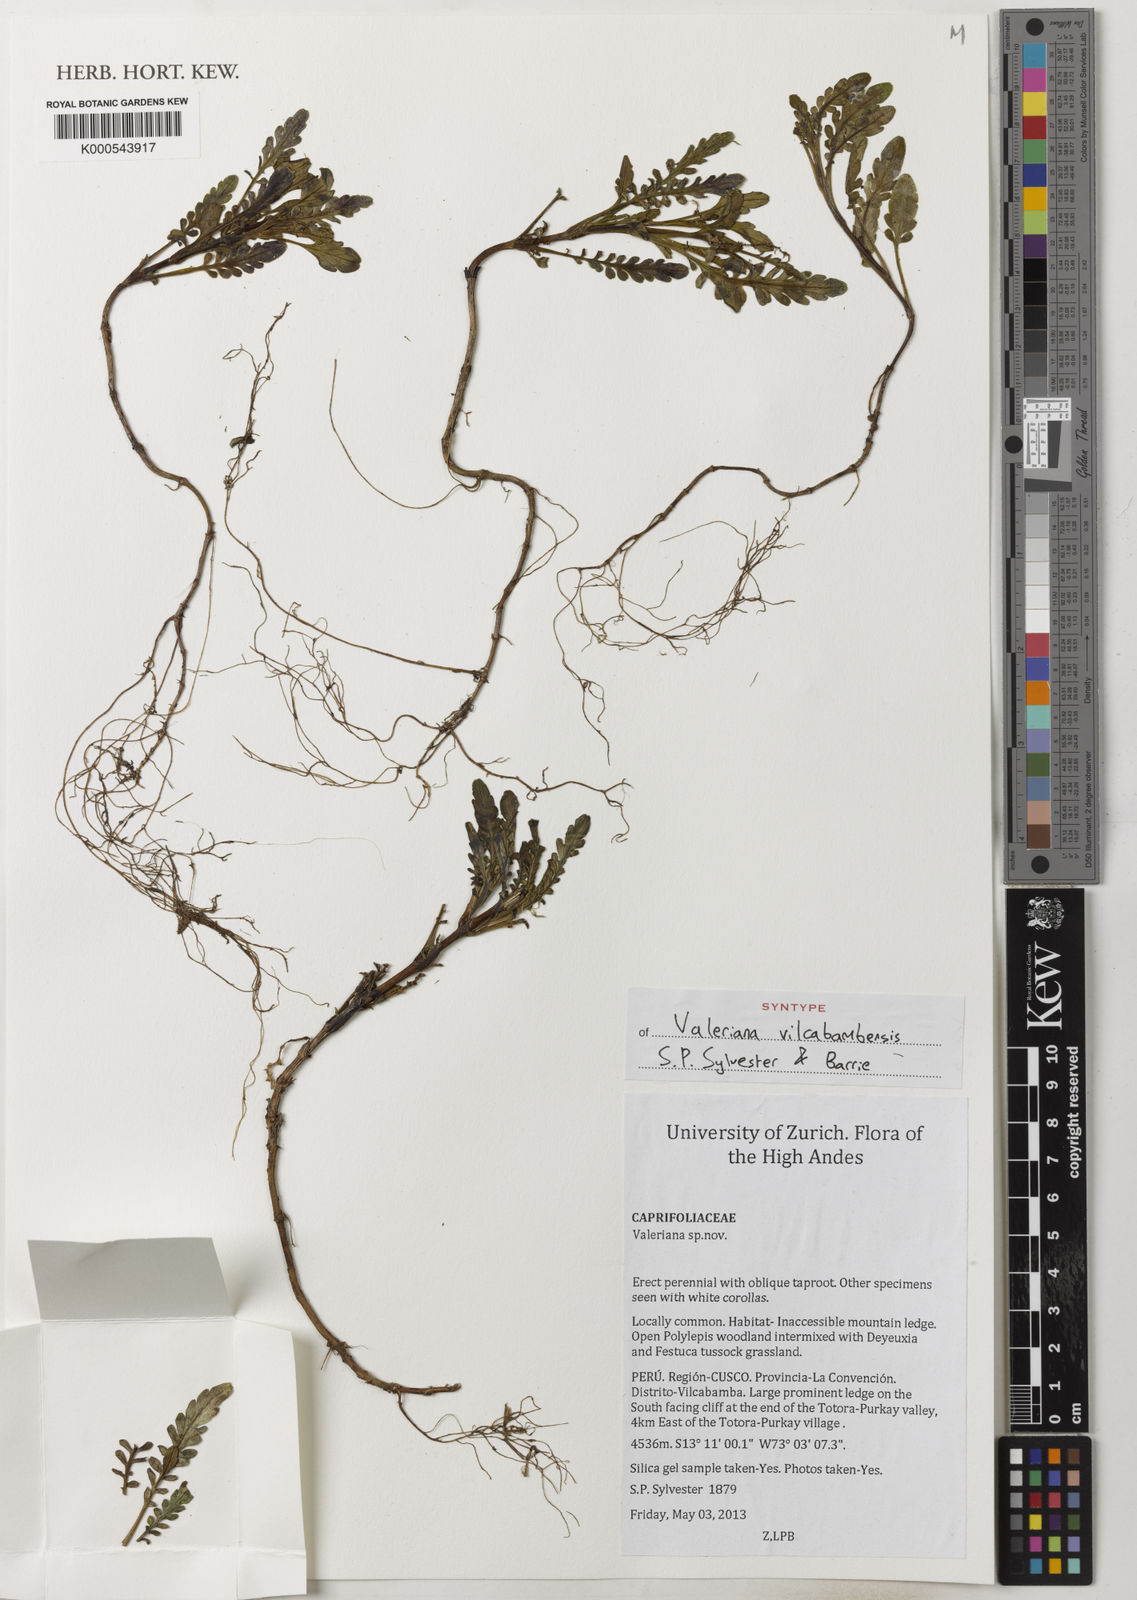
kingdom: Plantae
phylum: Tracheophyta
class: Magnoliopsida
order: Dipsacales
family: Caprifoliaceae
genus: Valeriana
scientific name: Valeriana
